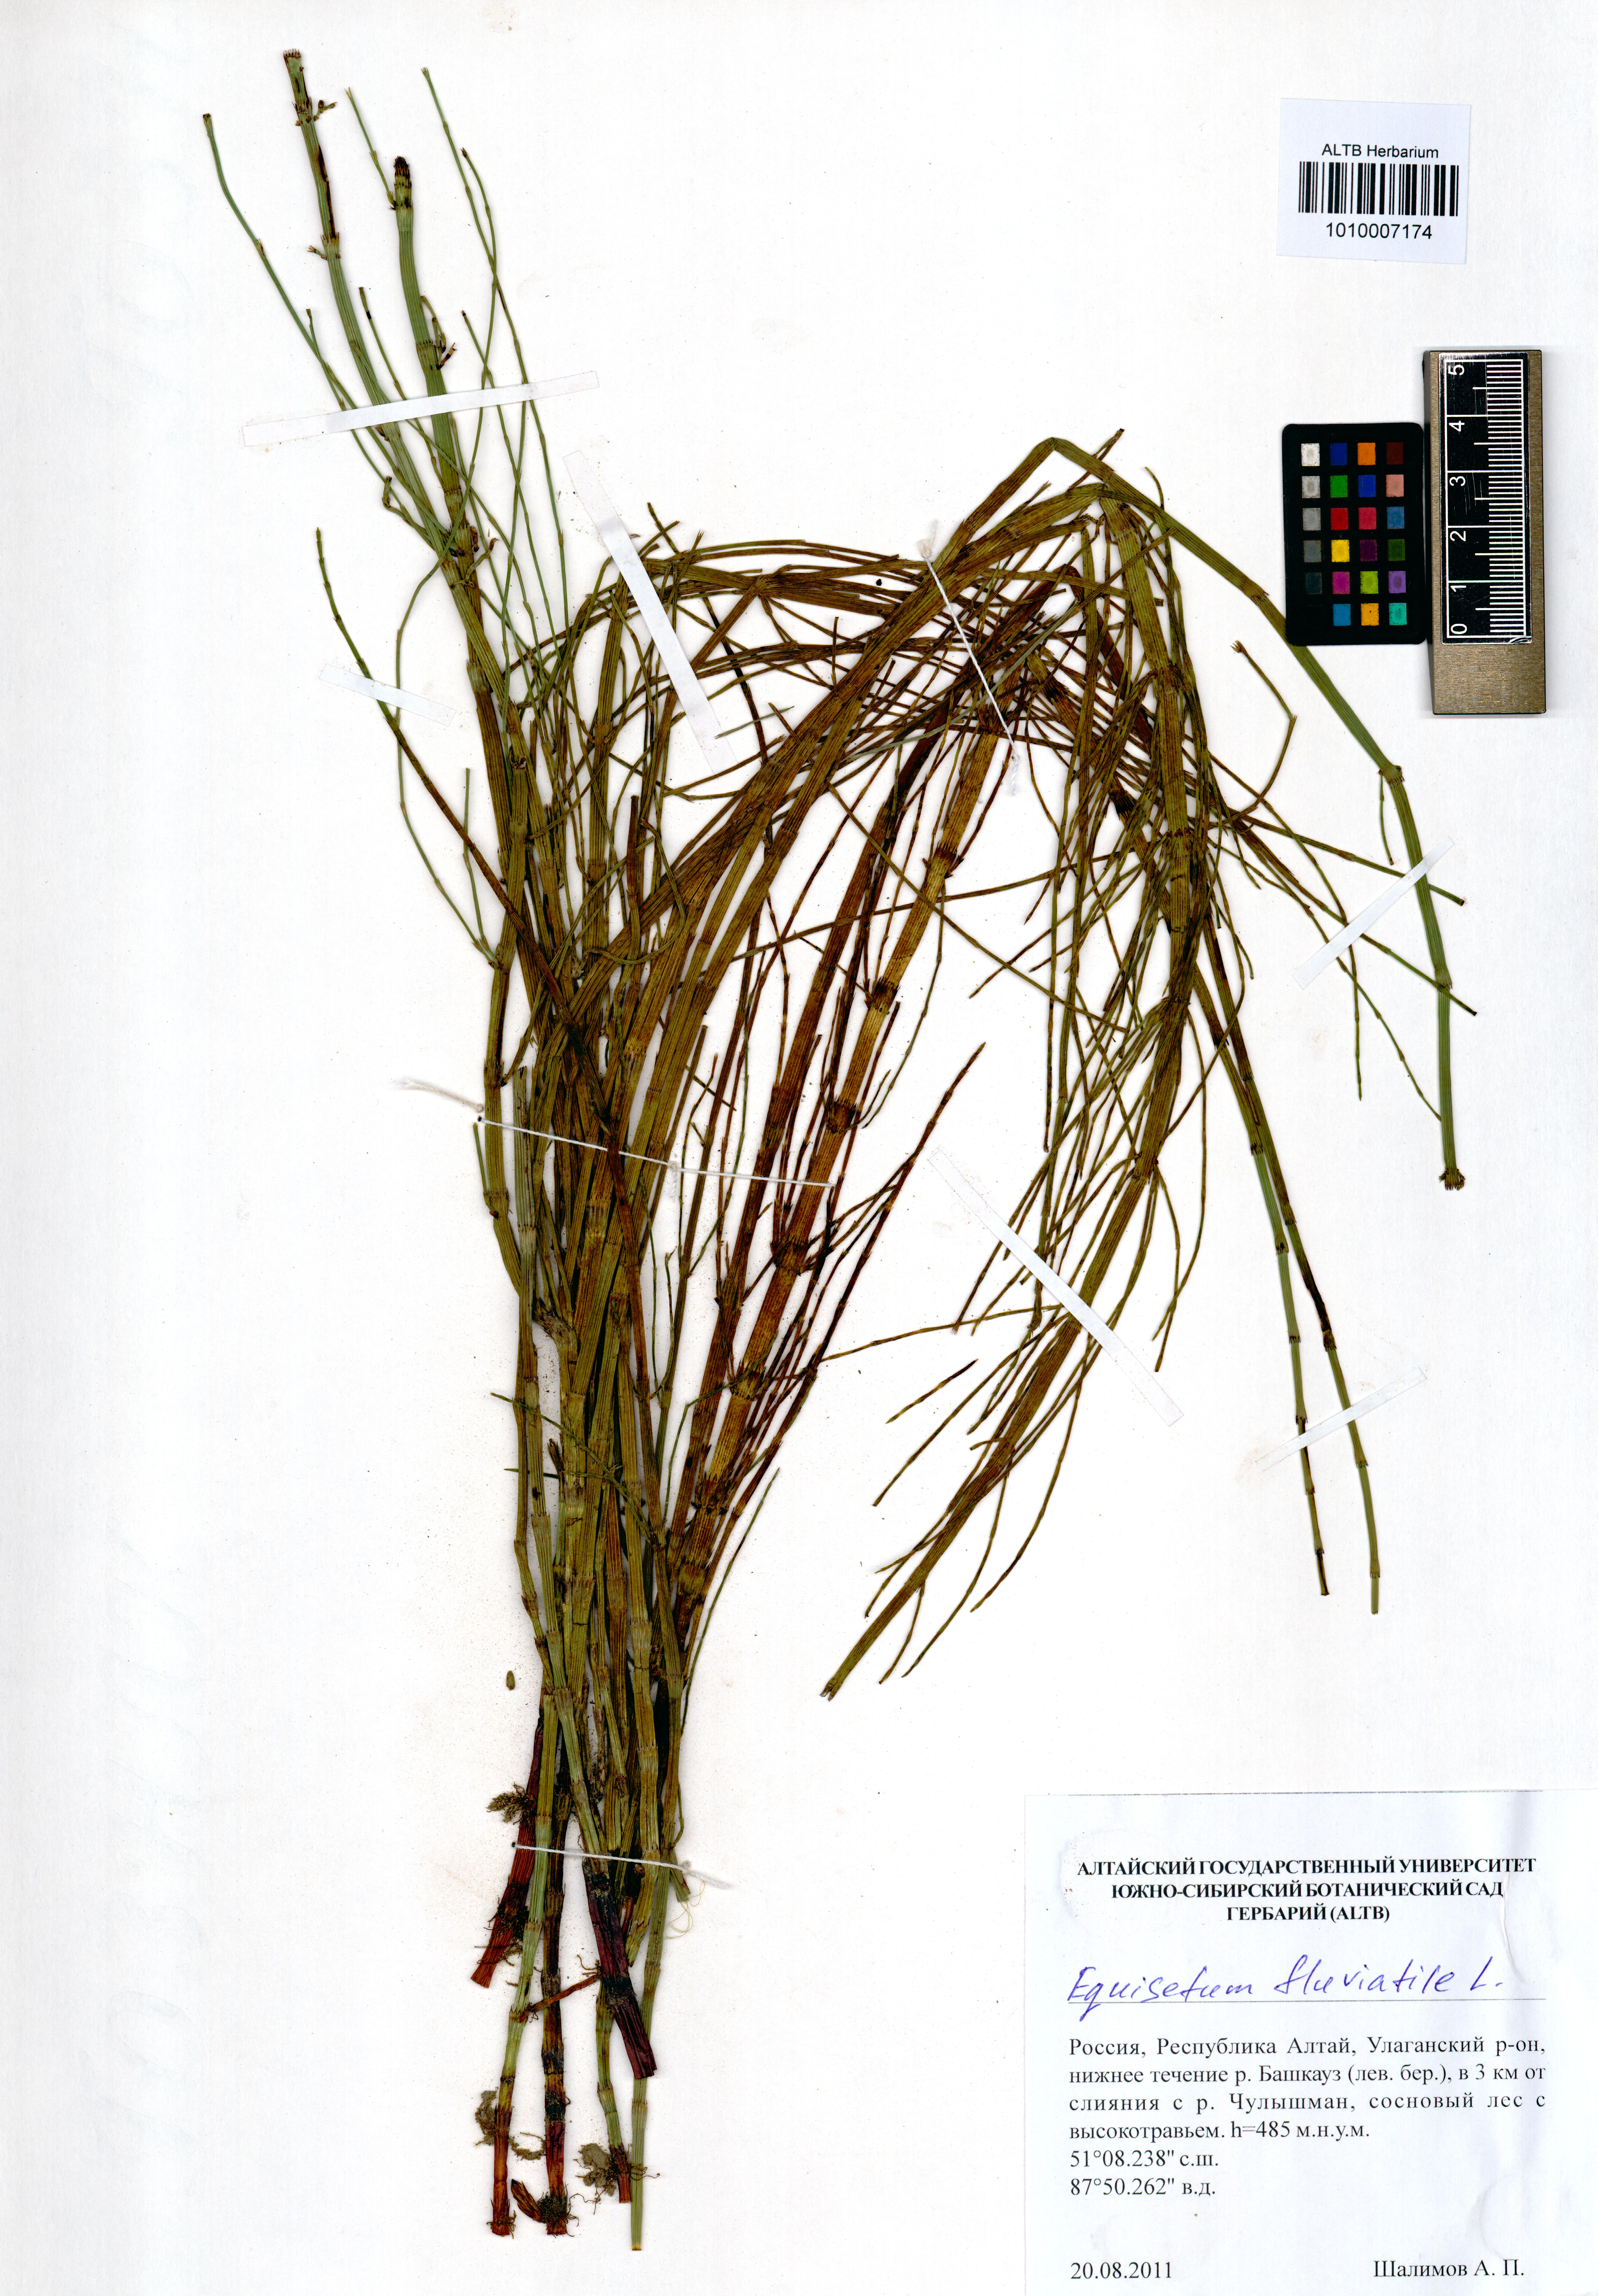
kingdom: Plantae
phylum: Tracheophyta
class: Polypodiopsida
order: Equisetales
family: Equisetaceae
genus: Equisetum
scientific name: Equisetum fluviatile
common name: Water horsetail
